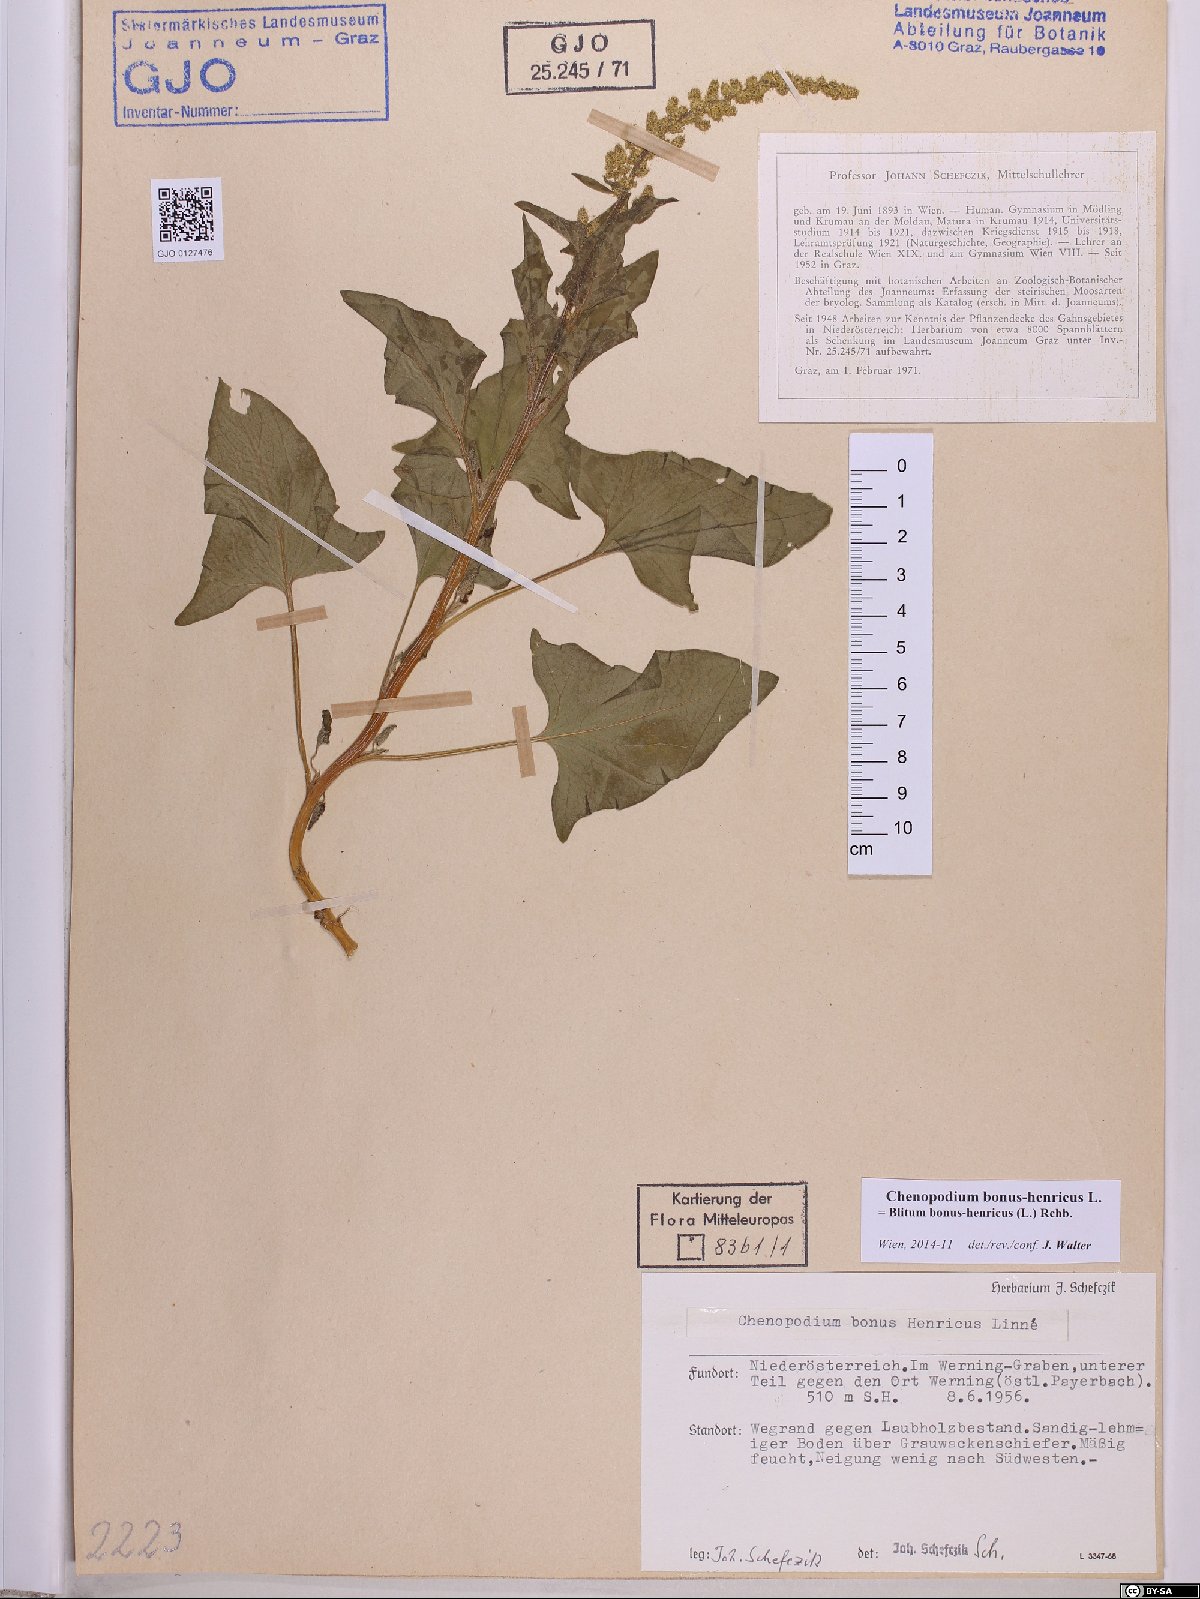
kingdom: Plantae
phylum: Tracheophyta
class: Magnoliopsida
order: Caryophyllales
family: Amaranthaceae
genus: Blitum
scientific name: Blitum bonus-henricus
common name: Good king henry
